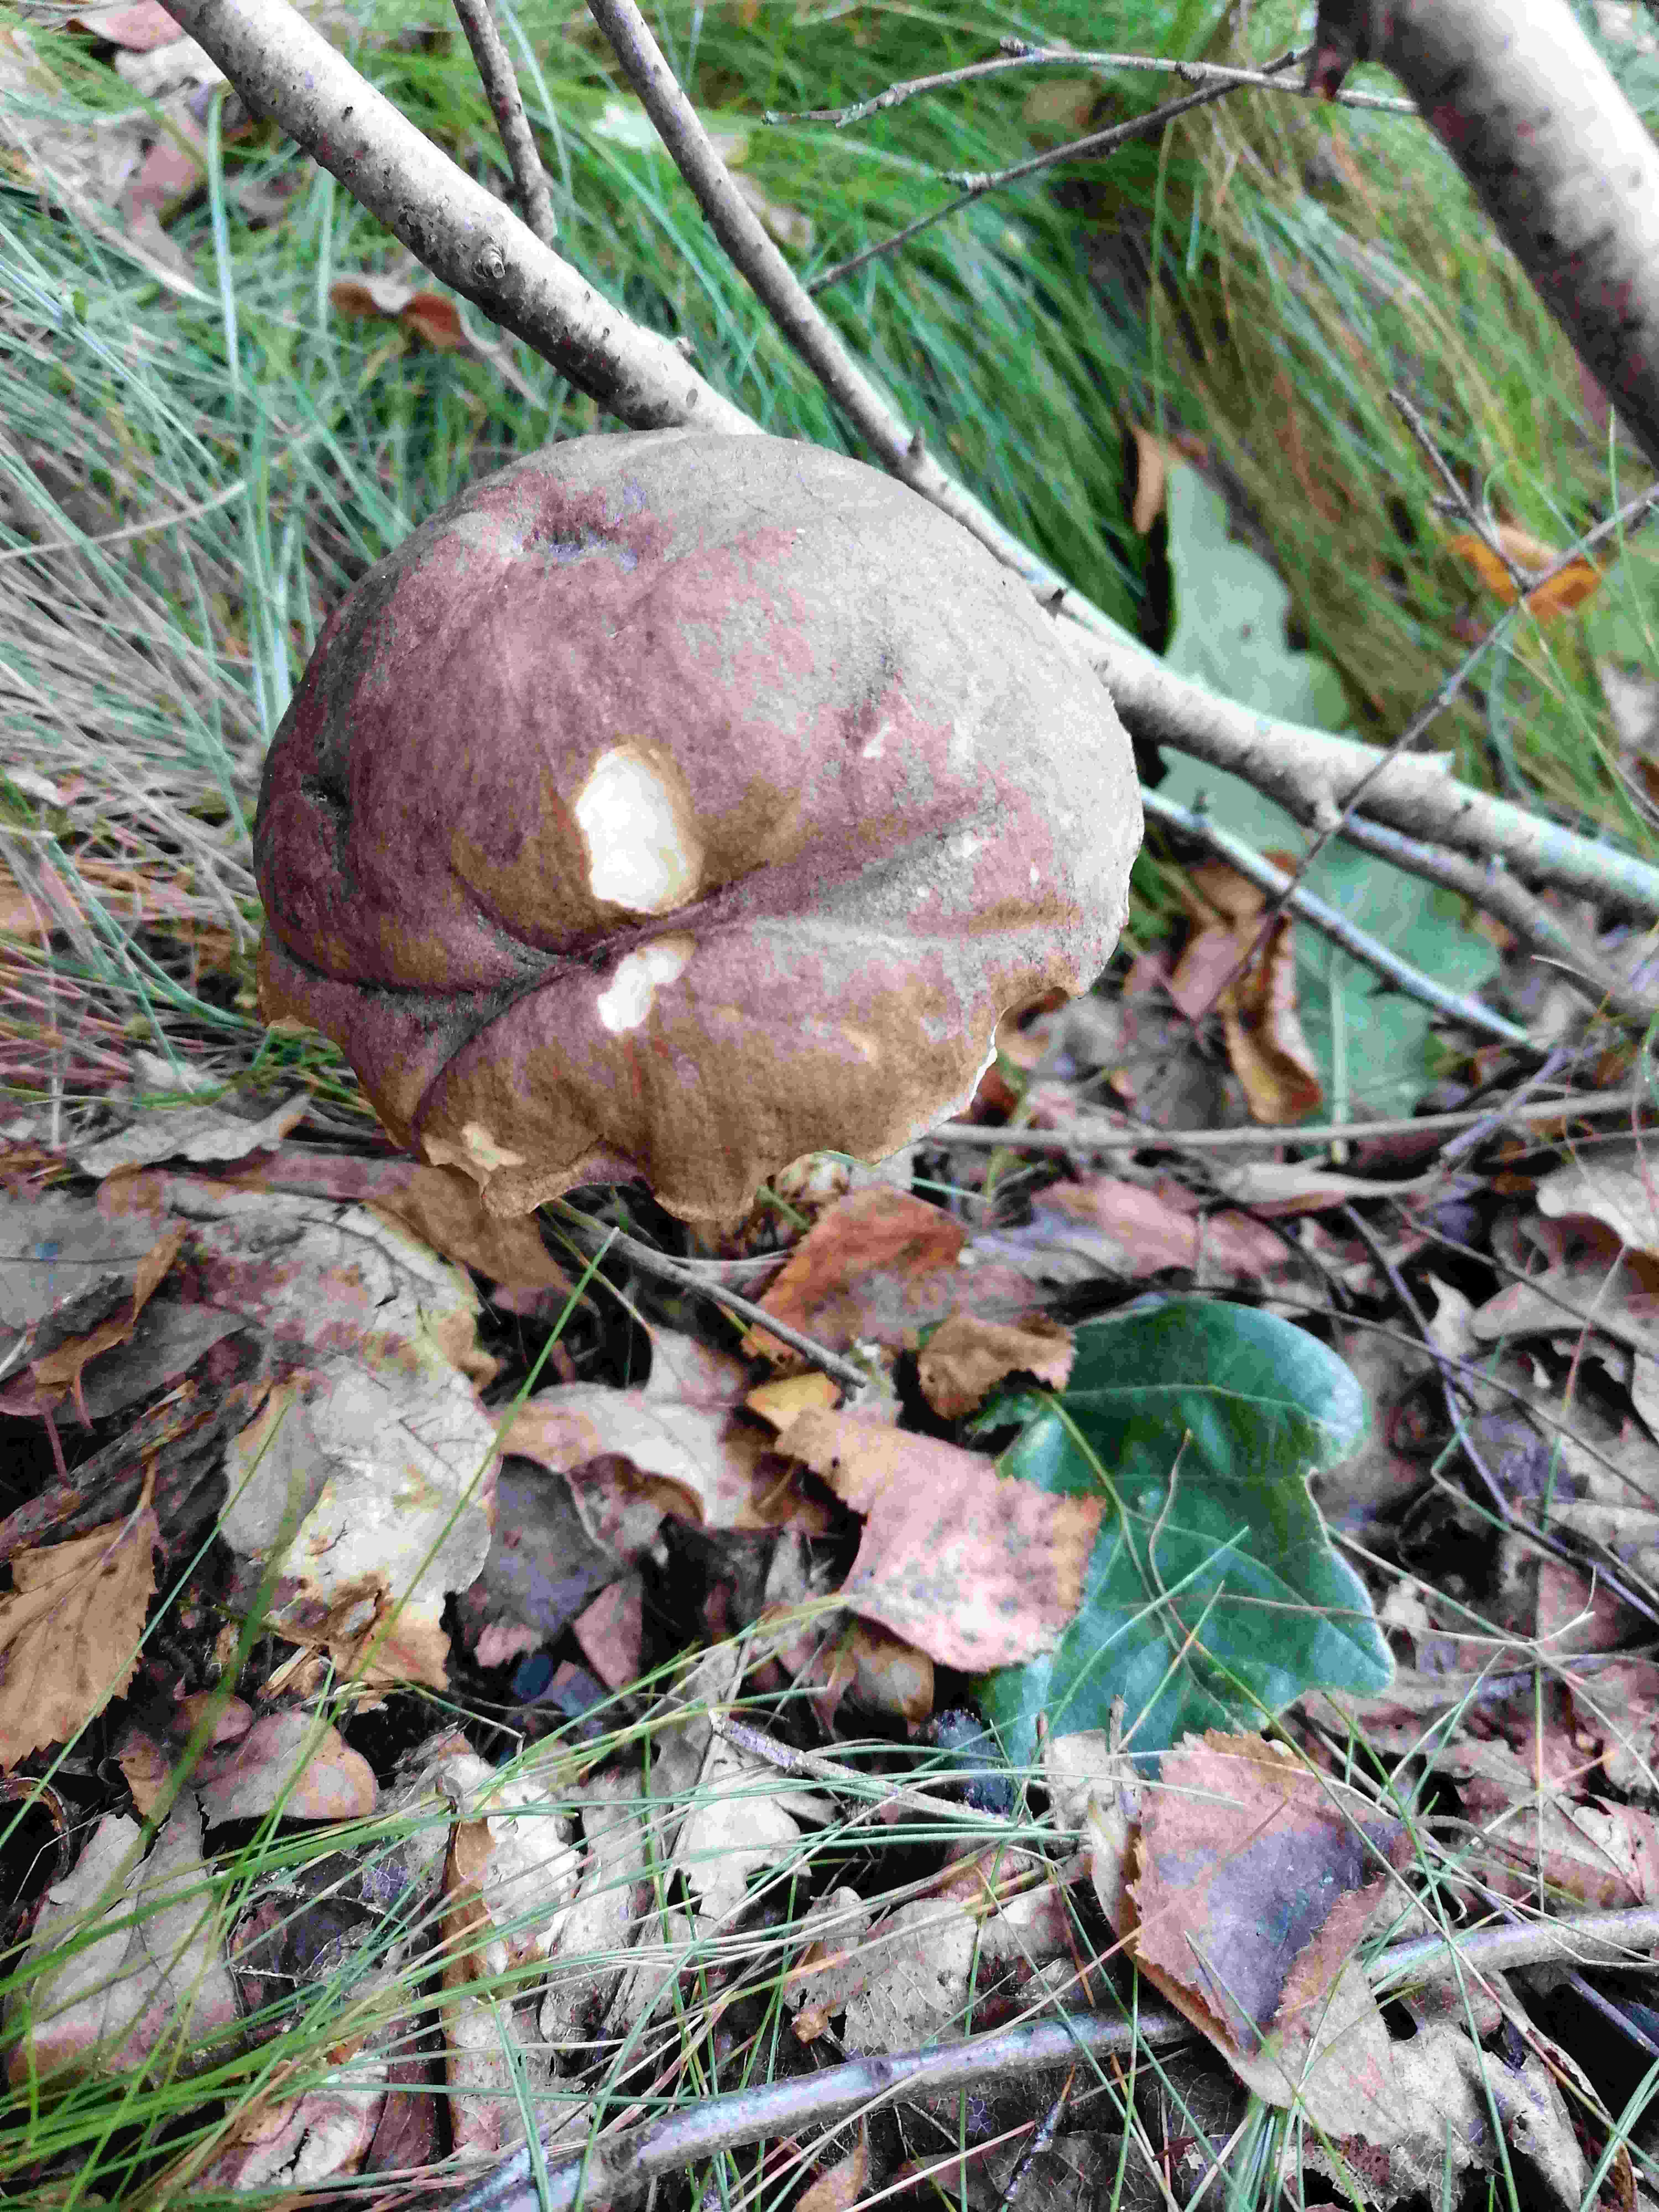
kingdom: Fungi
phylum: Basidiomycota
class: Agaricomycetes
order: Boletales
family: Boletaceae
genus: Leccinum
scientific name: Leccinum
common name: skælrørhat
